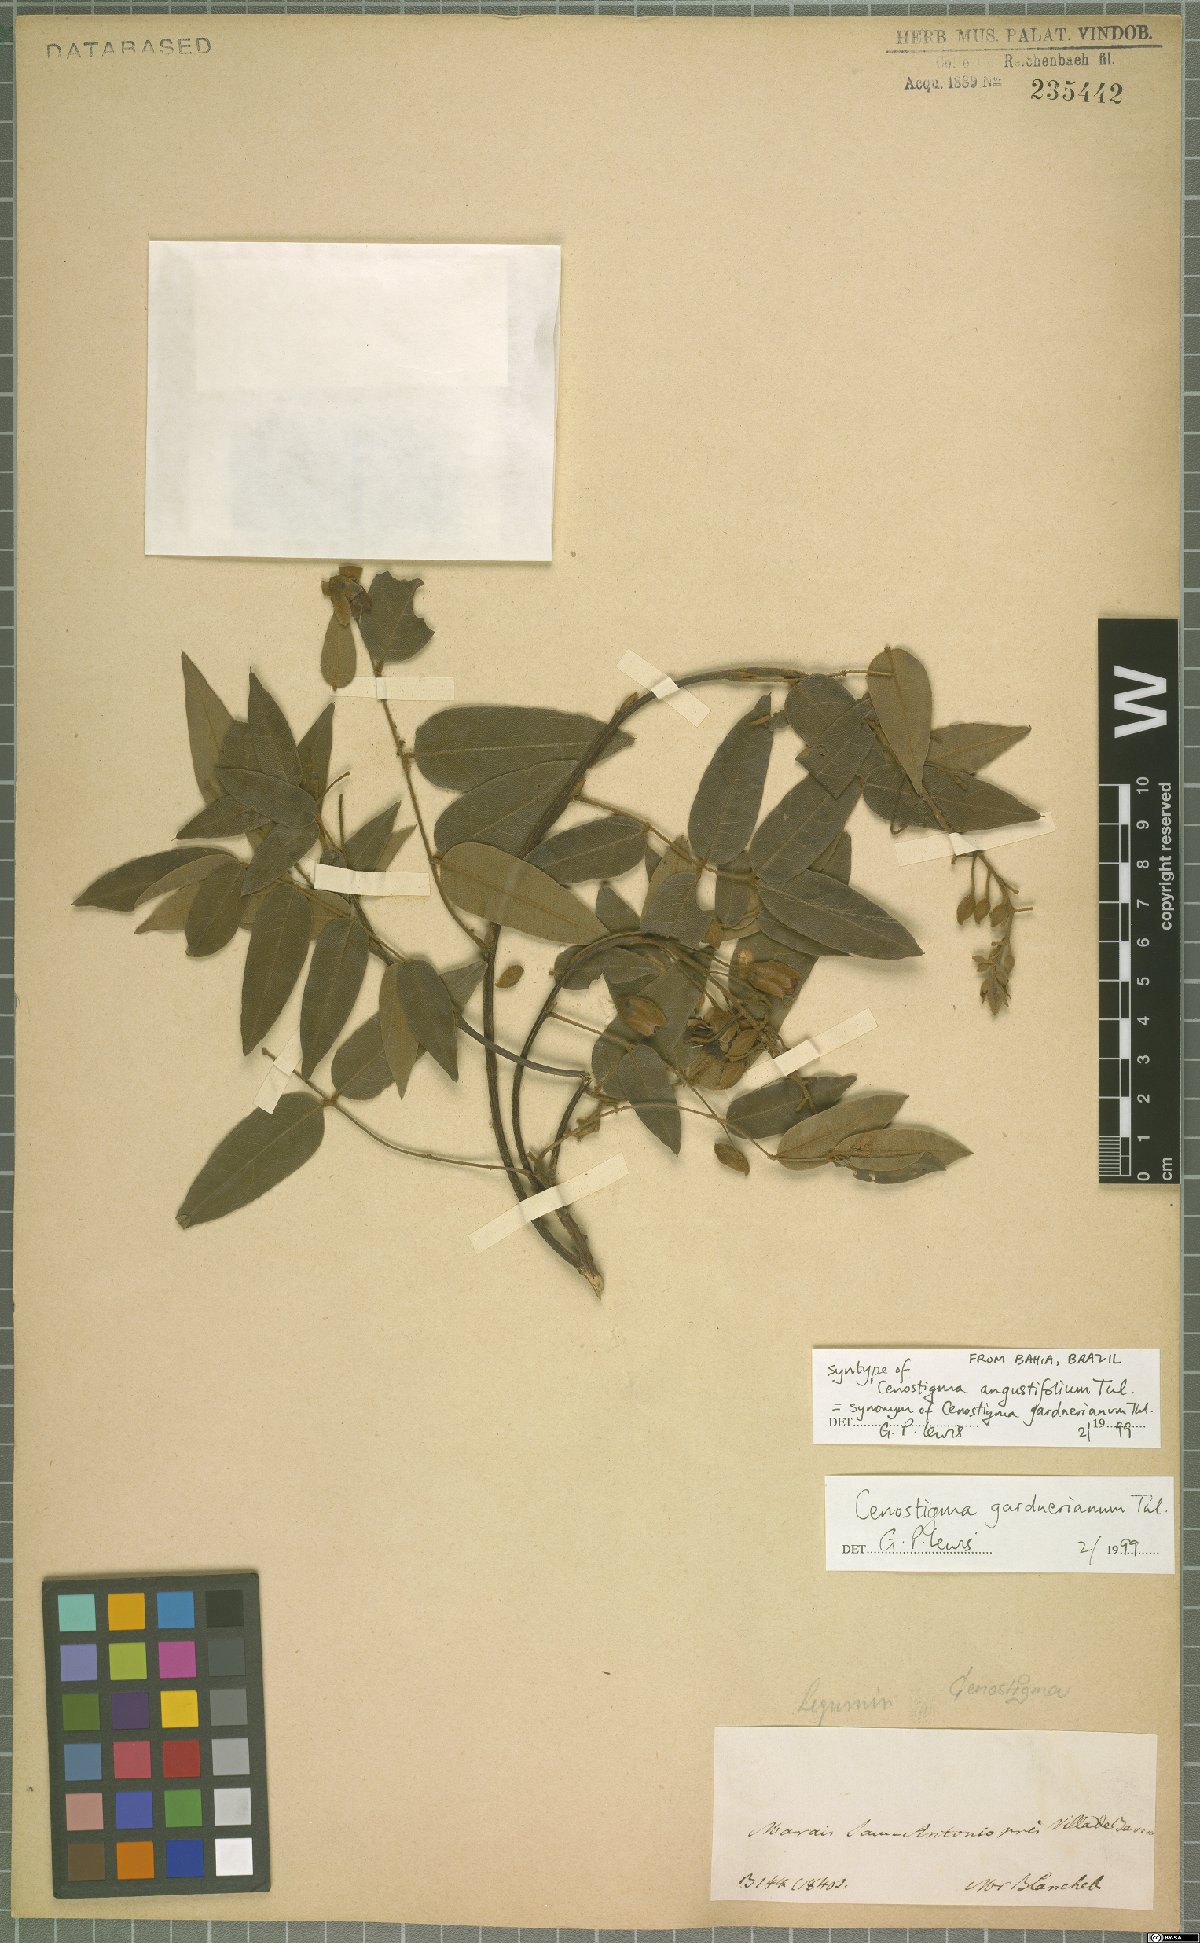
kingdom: Plantae
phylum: Tracheophyta
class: Magnoliopsida
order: Fabales
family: Fabaceae
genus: Cenostigma
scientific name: Cenostigma macrophyllum
